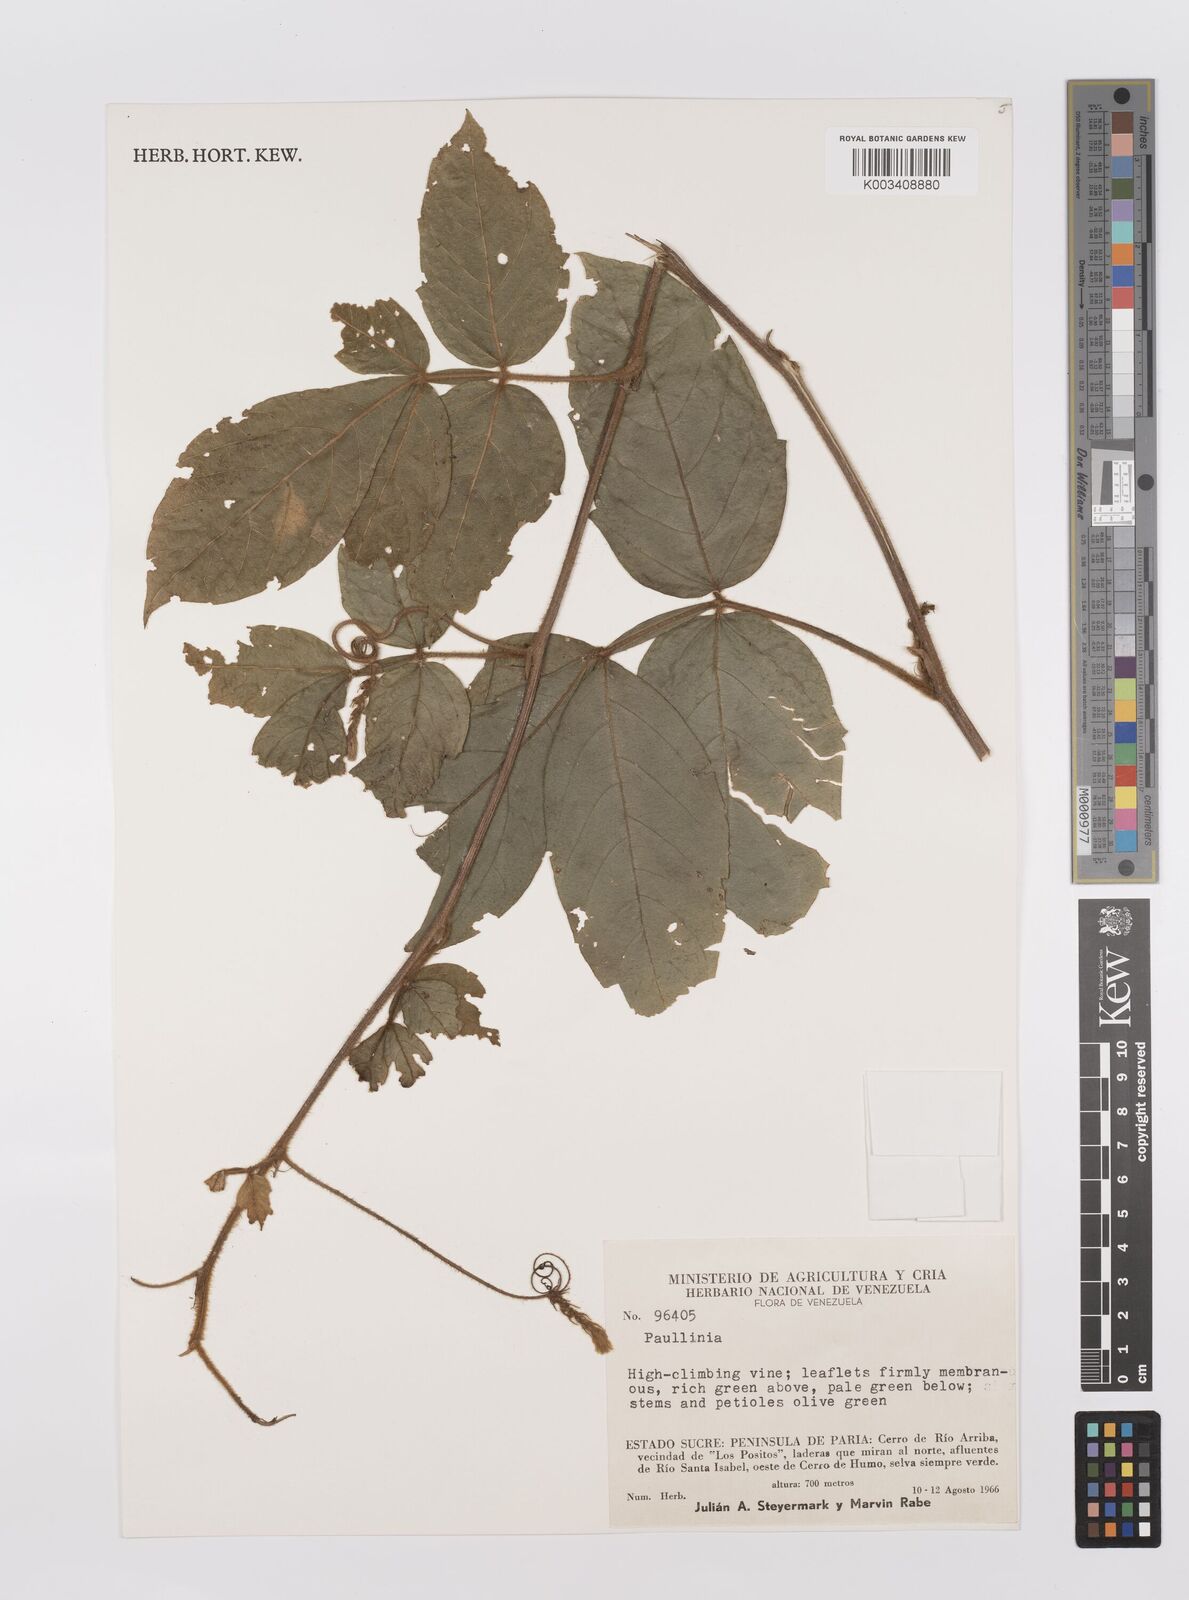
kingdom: Plantae
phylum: Tracheophyta
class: Magnoliopsida
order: Sapindales
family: Sapindaceae
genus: Paullinia
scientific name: Paullinia
